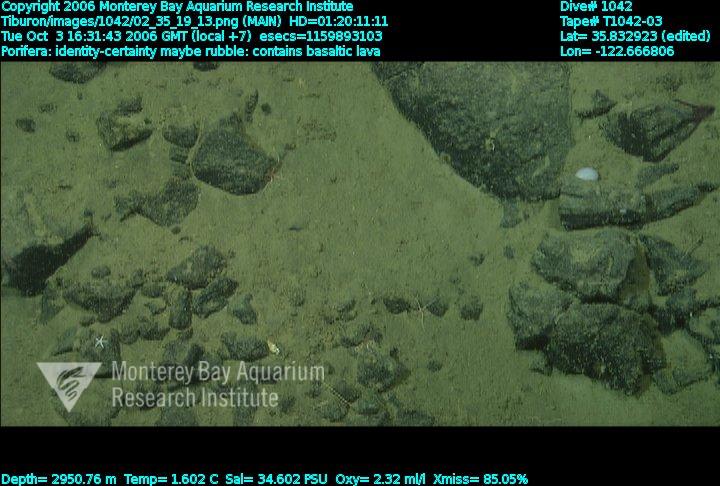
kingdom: Animalia
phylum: Porifera
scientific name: Porifera
